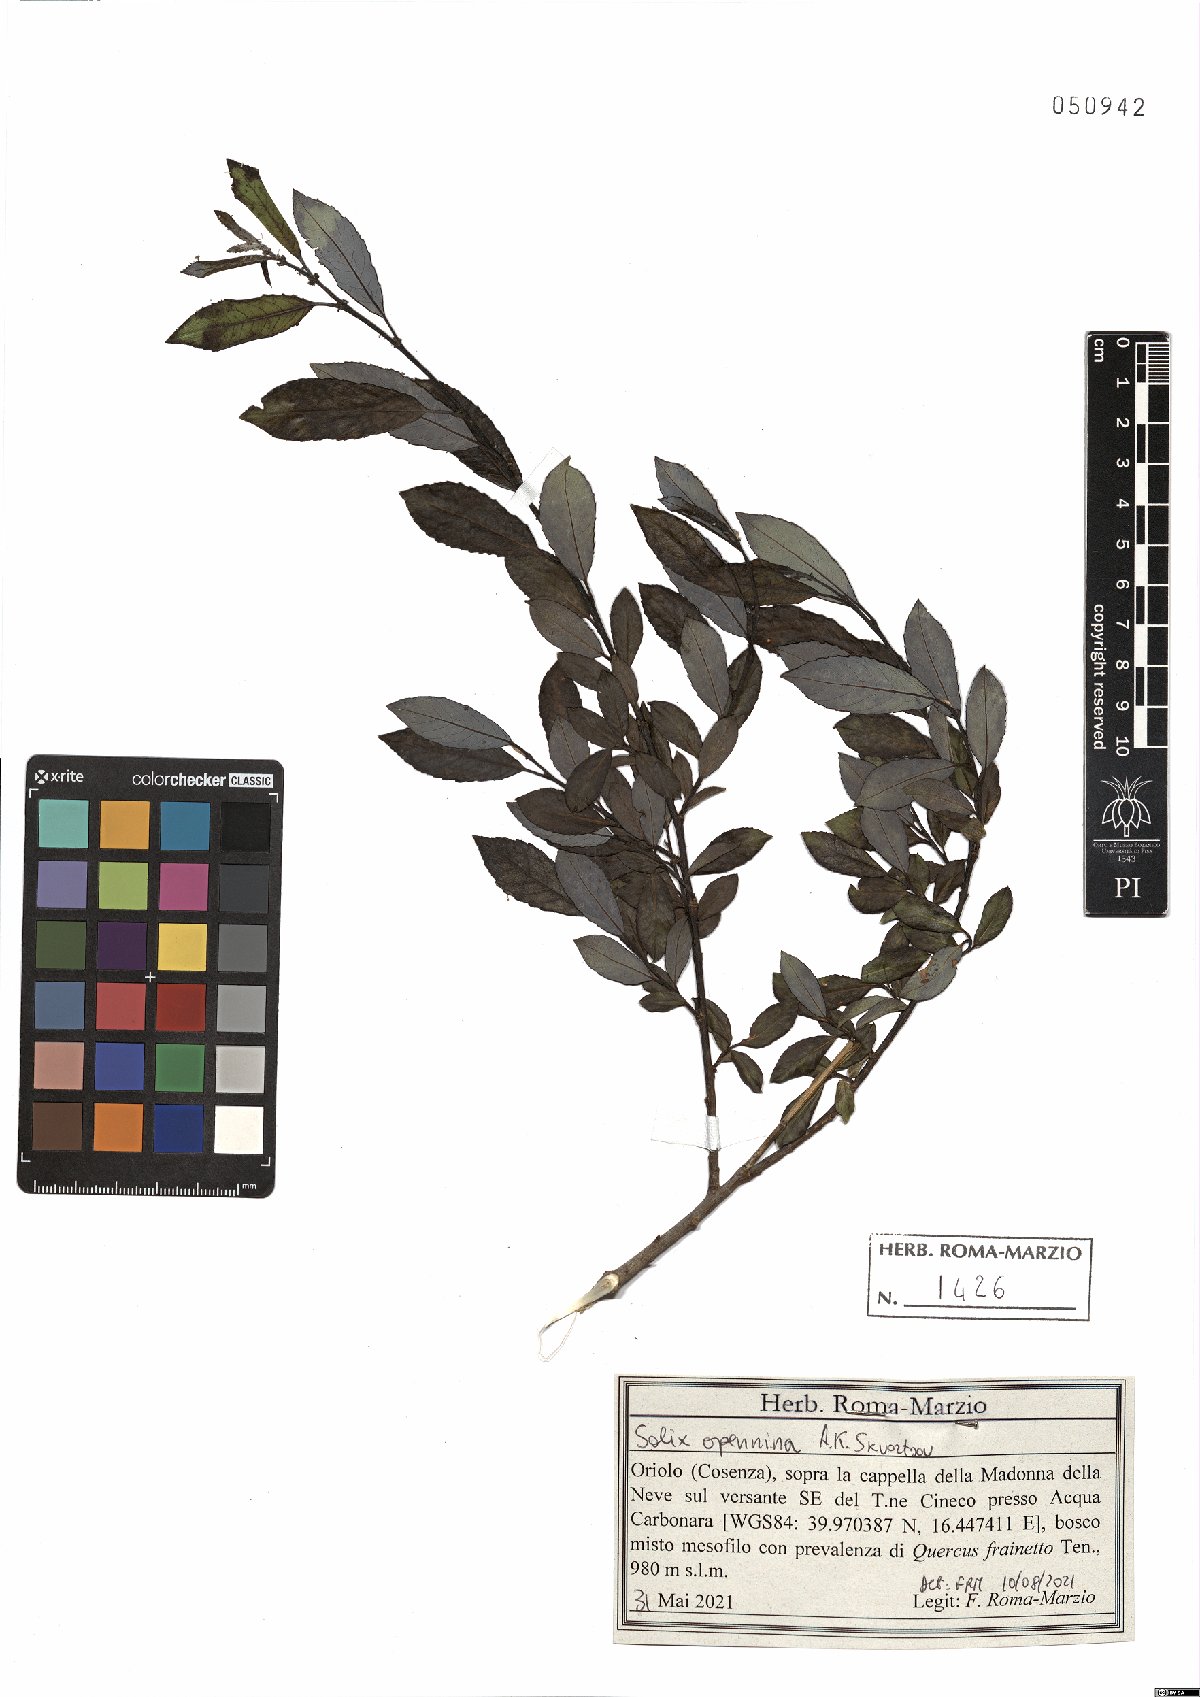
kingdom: Plantae
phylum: Tracheophyta
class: Magnoliopsida
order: Malpighiales
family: Salicaceae
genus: Salix
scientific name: Salix apennina
